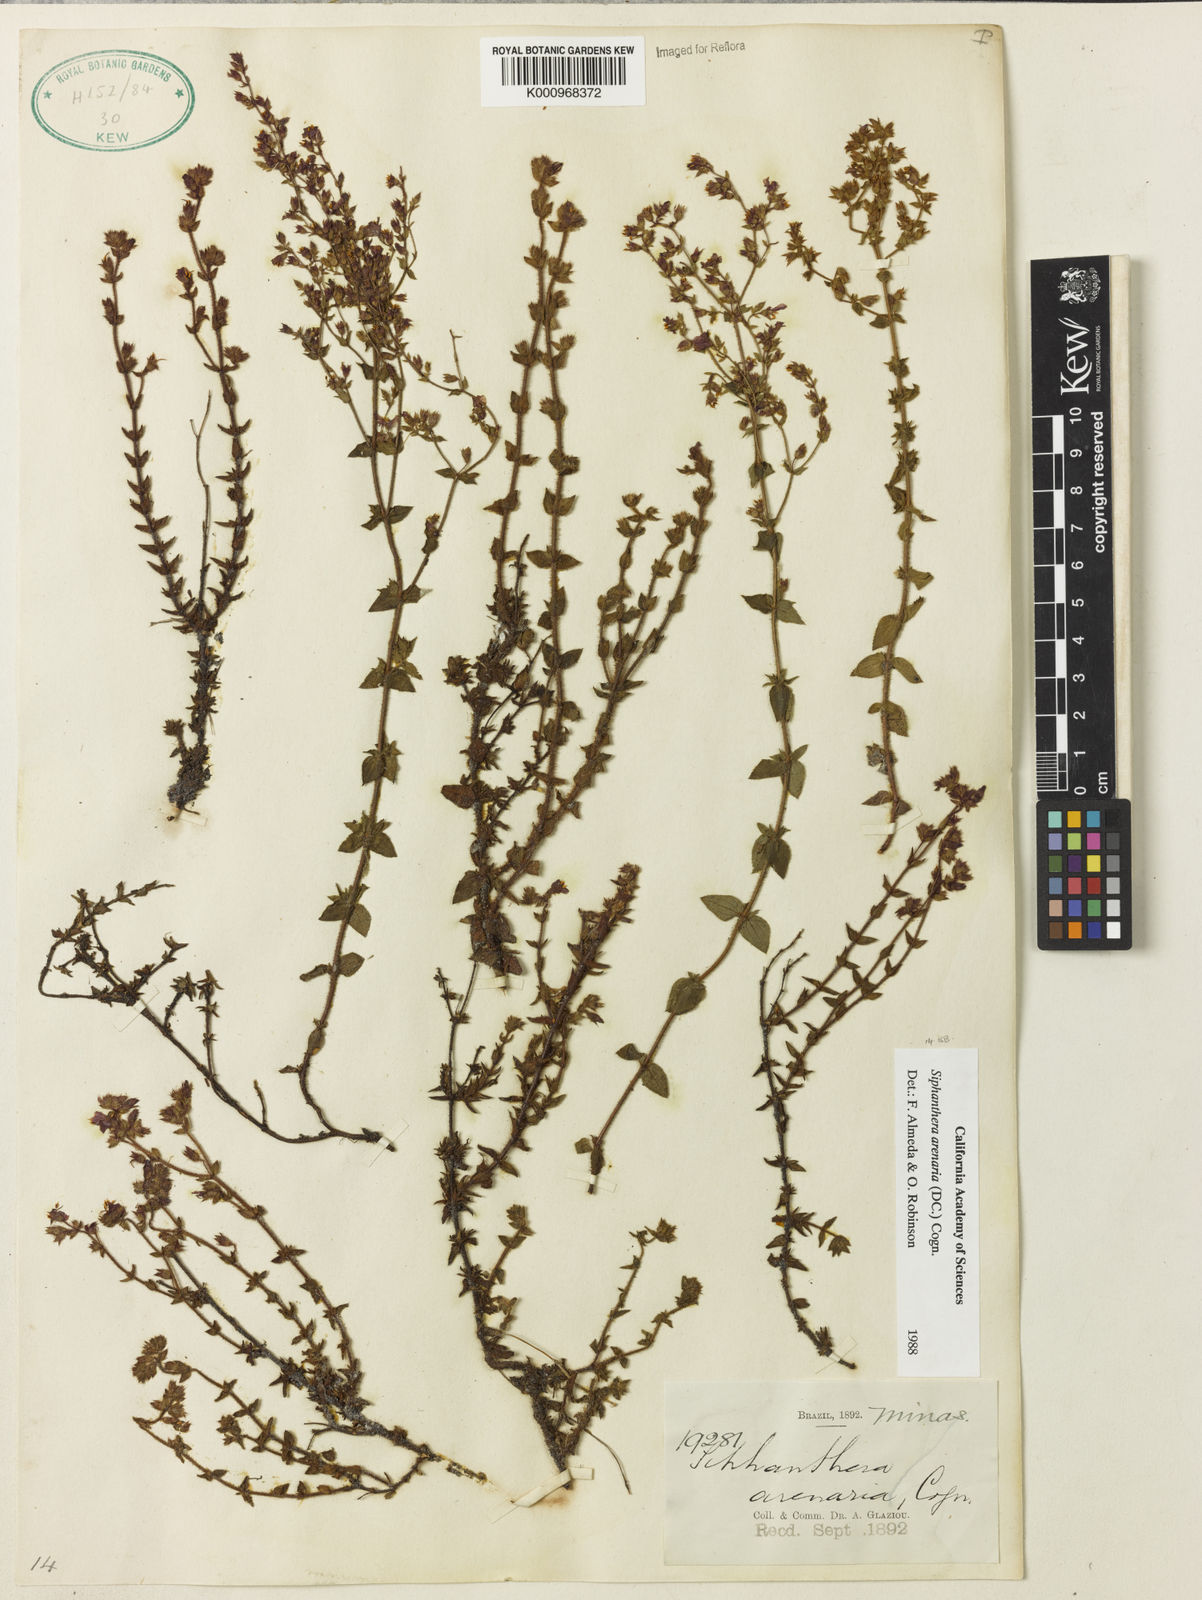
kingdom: Plantae
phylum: Tracheophyta
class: Magnoliopsida
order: Myrtales
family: Melastomataceae
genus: Siphanthera
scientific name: Siphanthera arenaria
